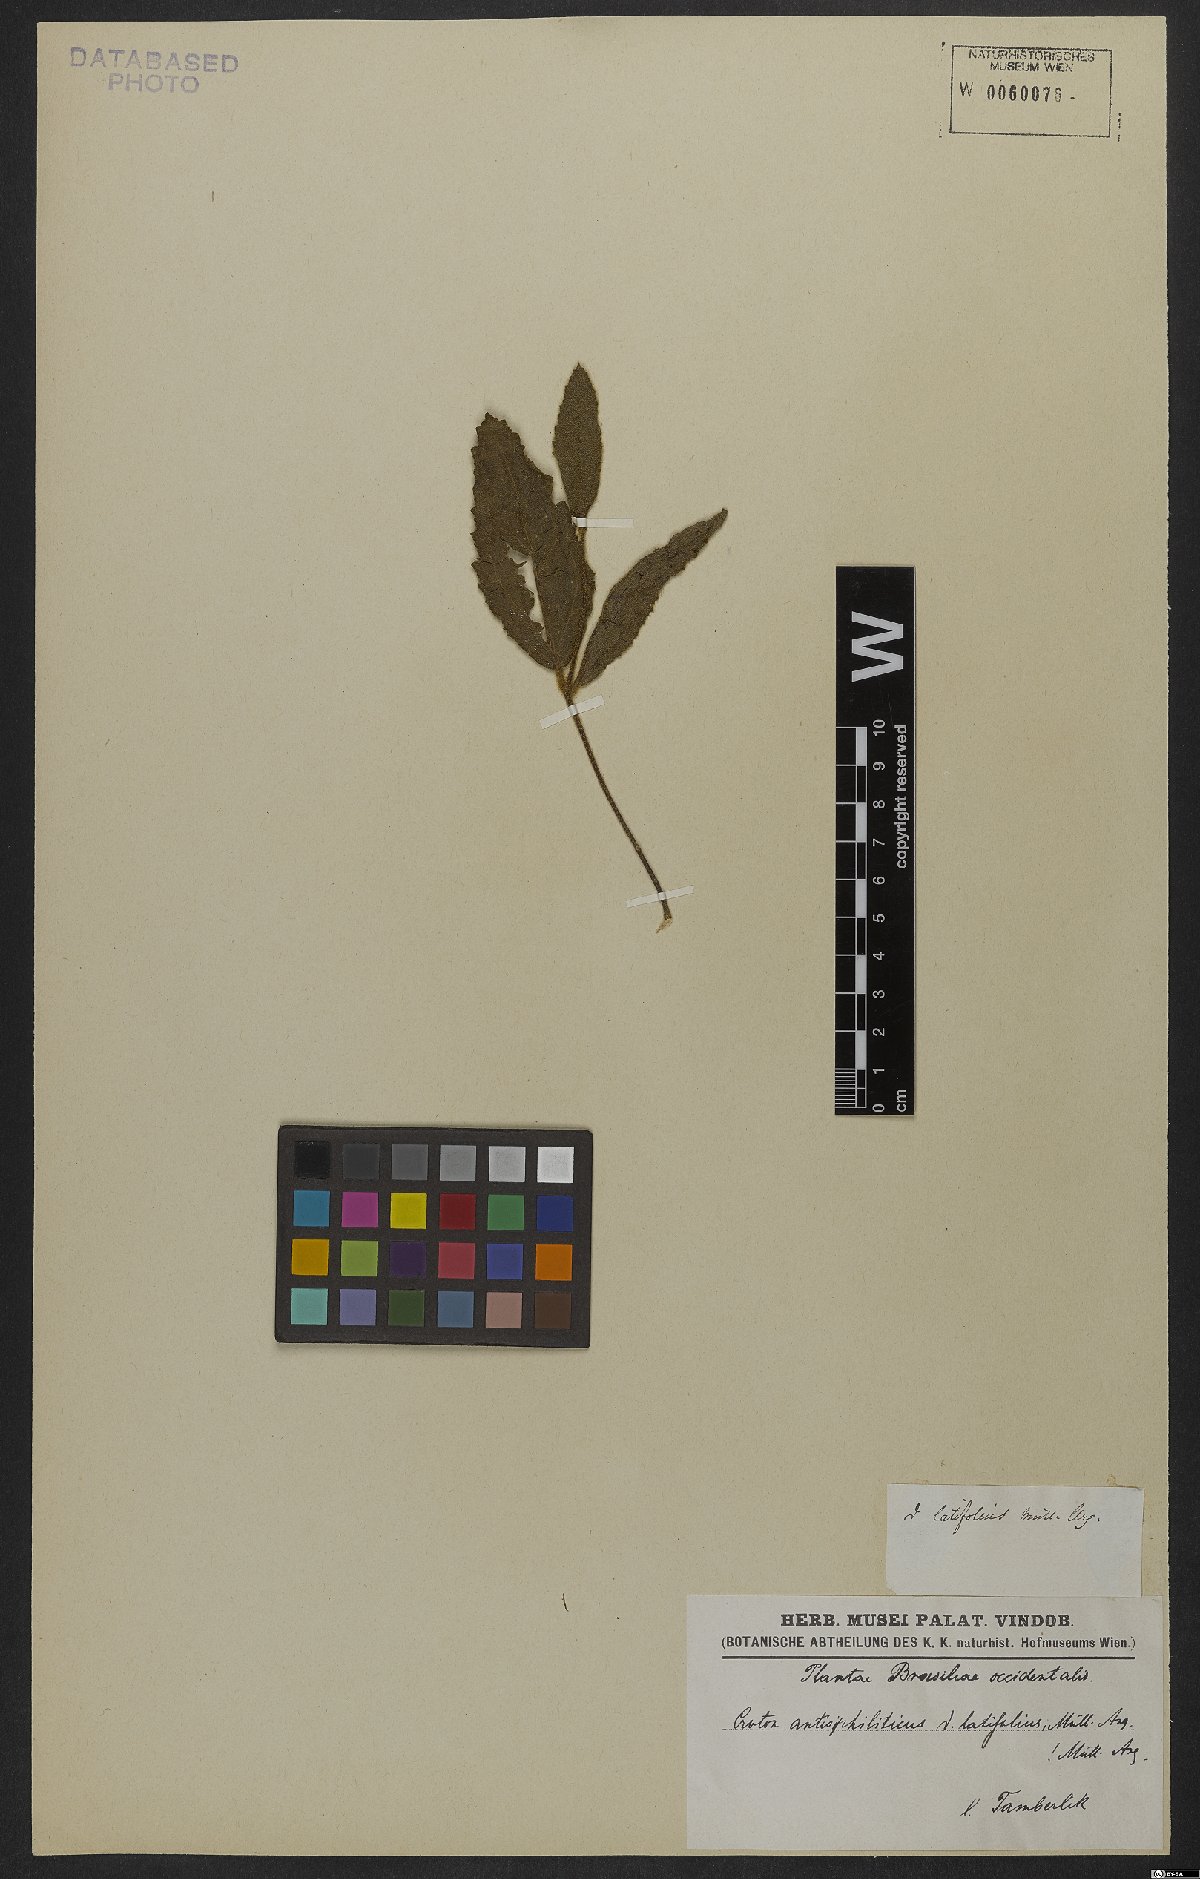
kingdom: Plantae
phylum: Tracheophyta
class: Magnoliopsida
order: Malpighiales
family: Euphorbiaceae
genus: Croton
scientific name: Croton antisyphiliticus
